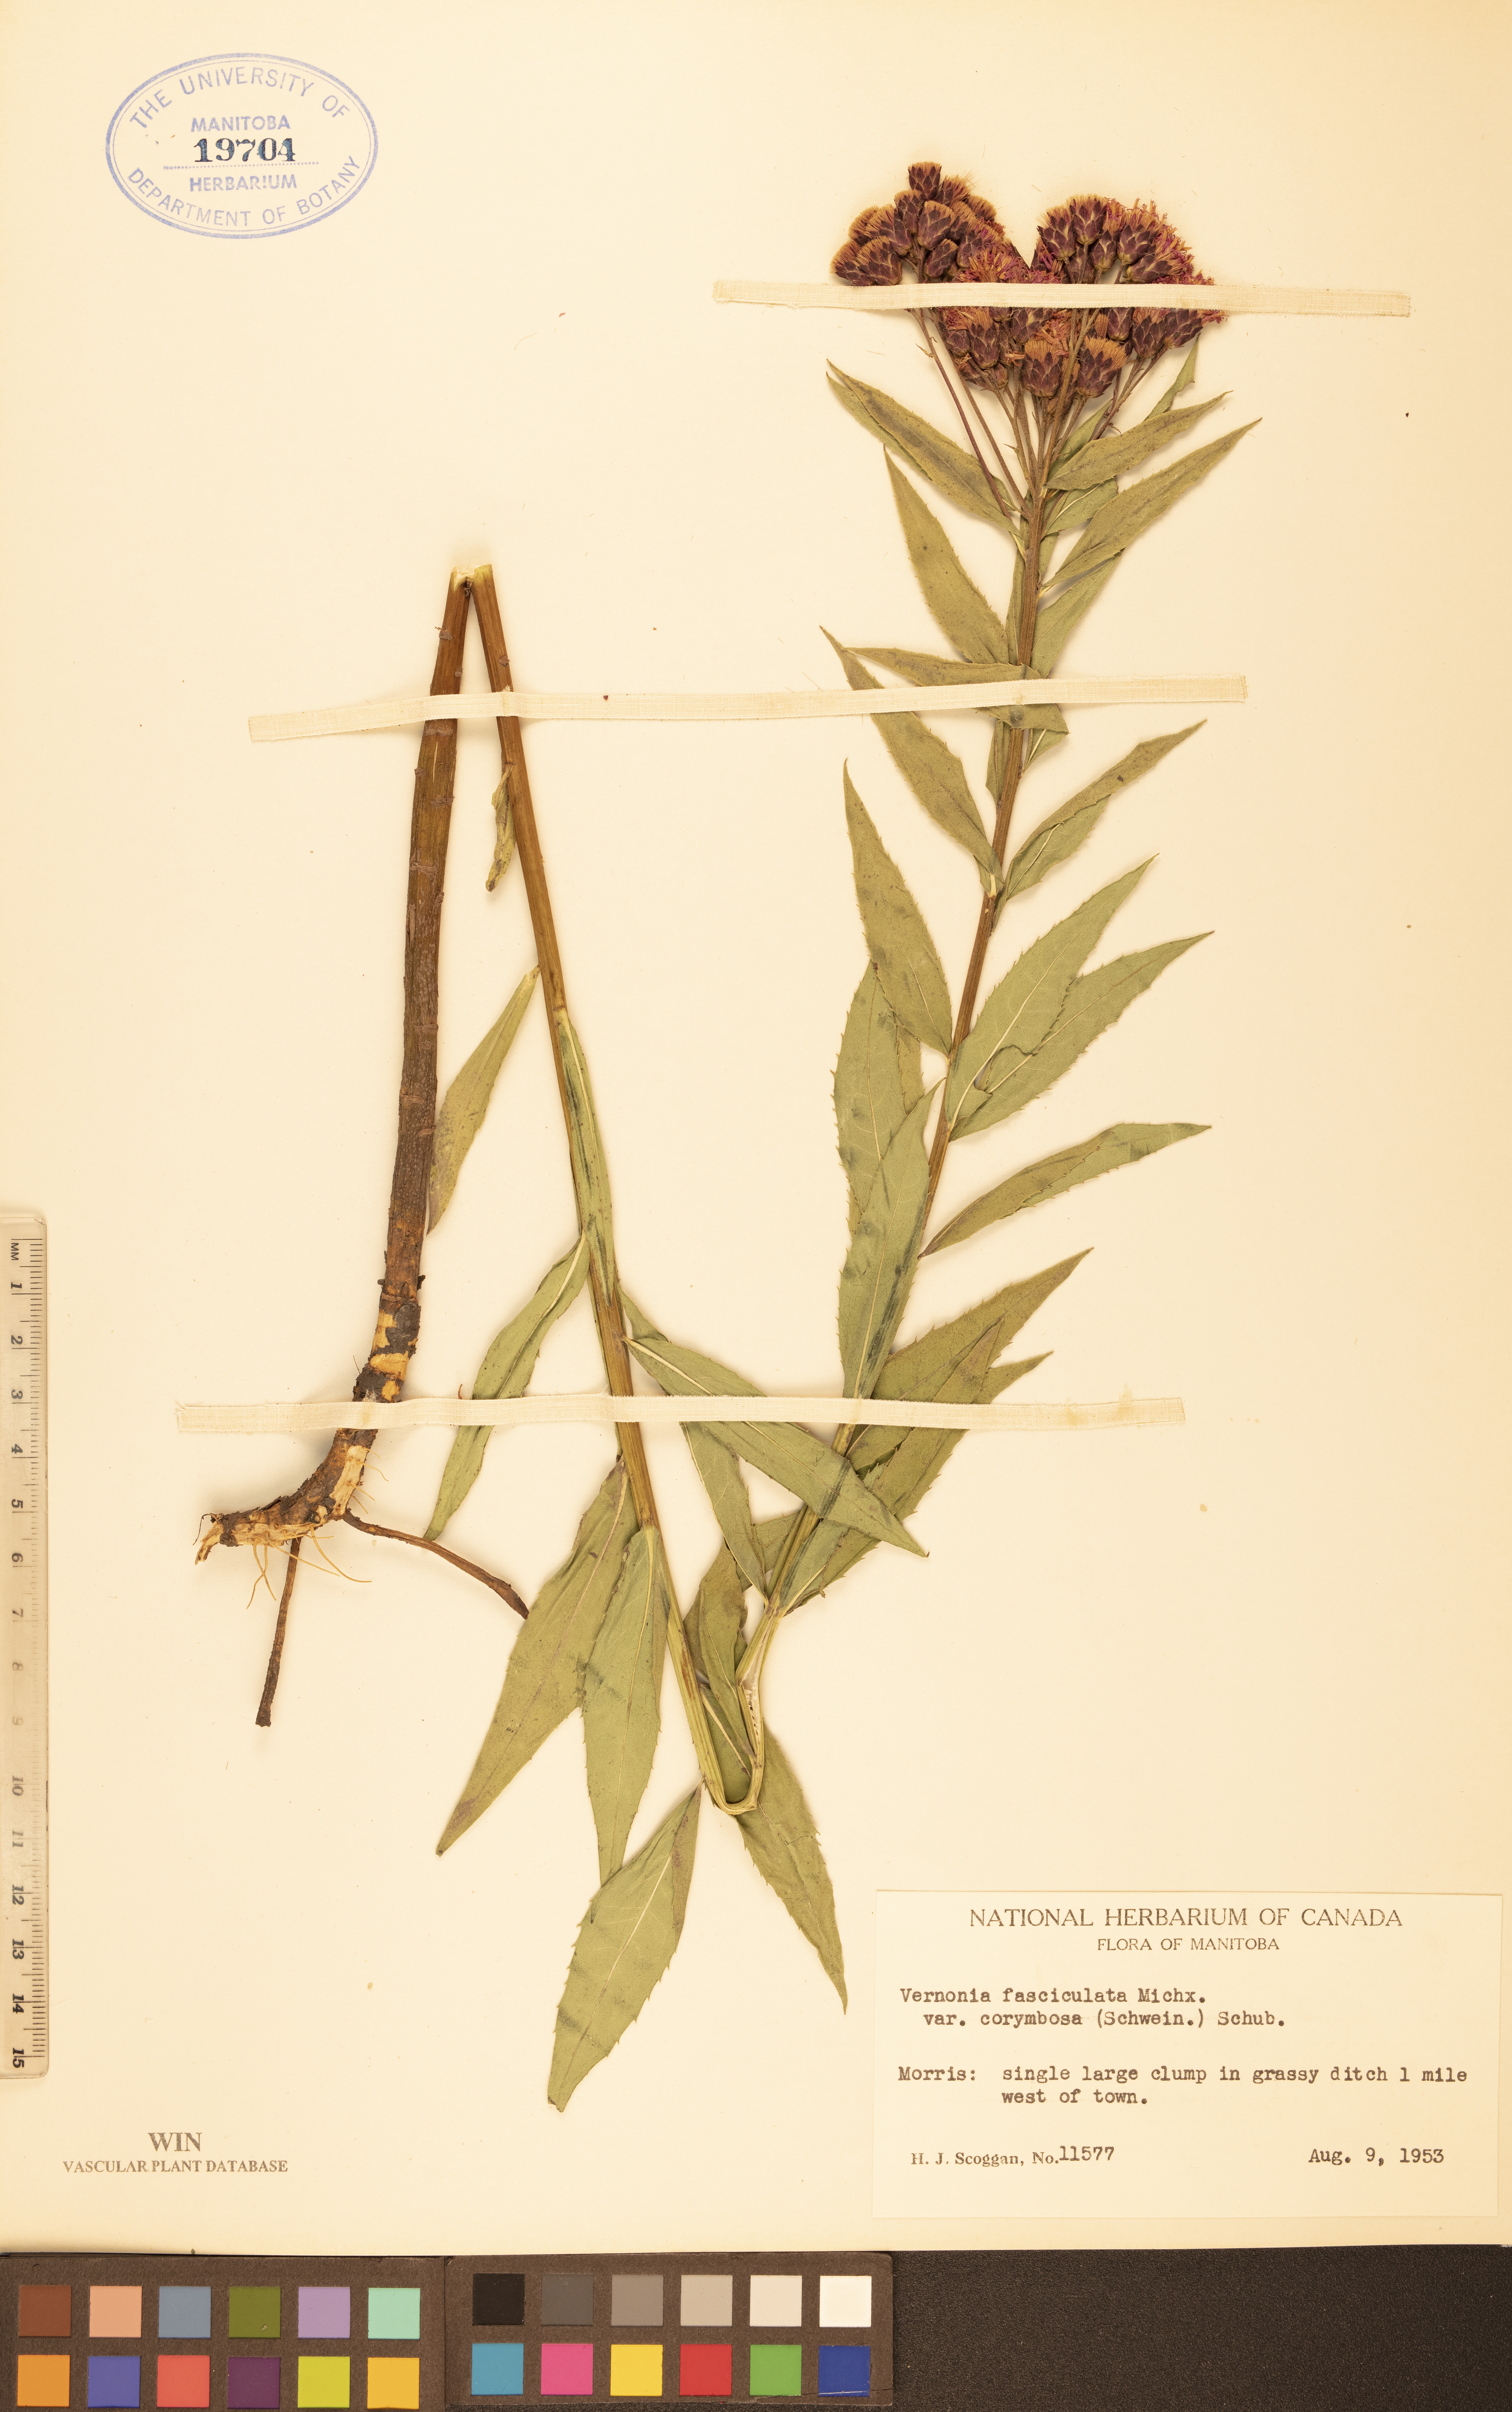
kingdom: Plantae
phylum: Tracheophyta
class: Magnoliopsida
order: Asterales
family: Asteraceae
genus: Vernonia
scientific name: Vernonia fasciculata
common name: Fascicled ironweed
